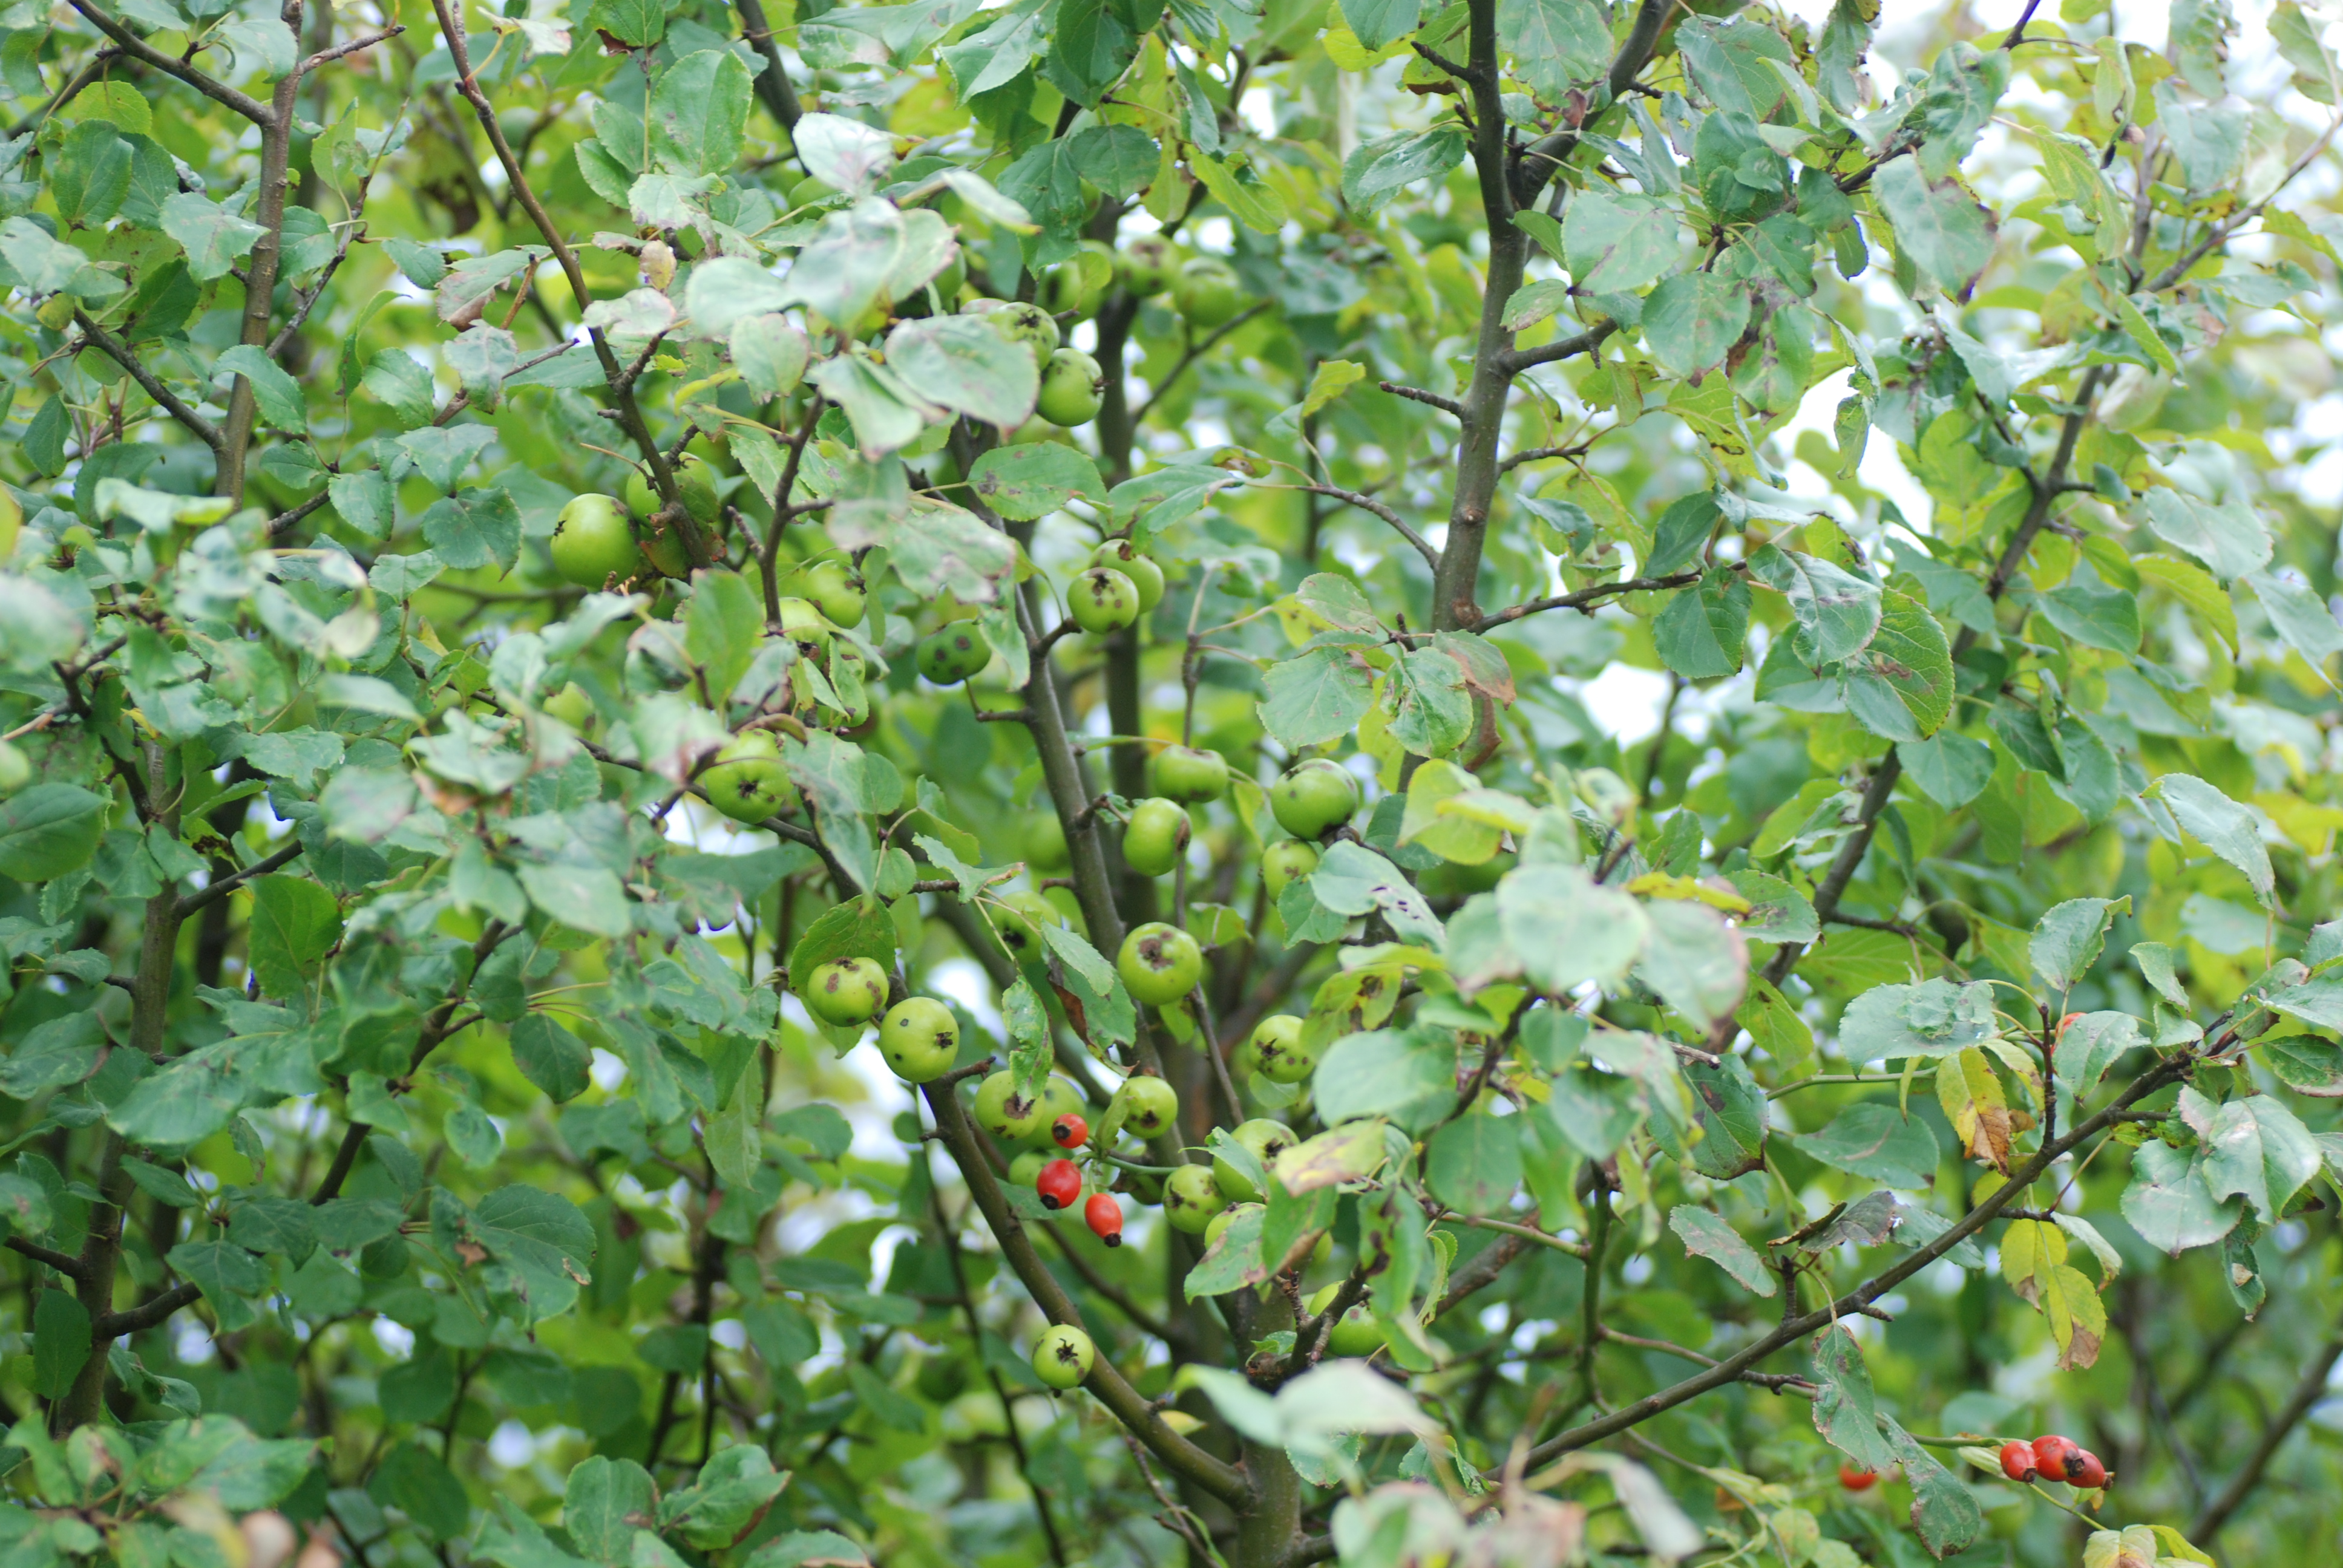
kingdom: Plantae
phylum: Tracheophyta
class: Magnoliopsida
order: Rosales
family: Rosaceae
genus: Malus
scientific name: Malus sylvestris
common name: Crab apple
